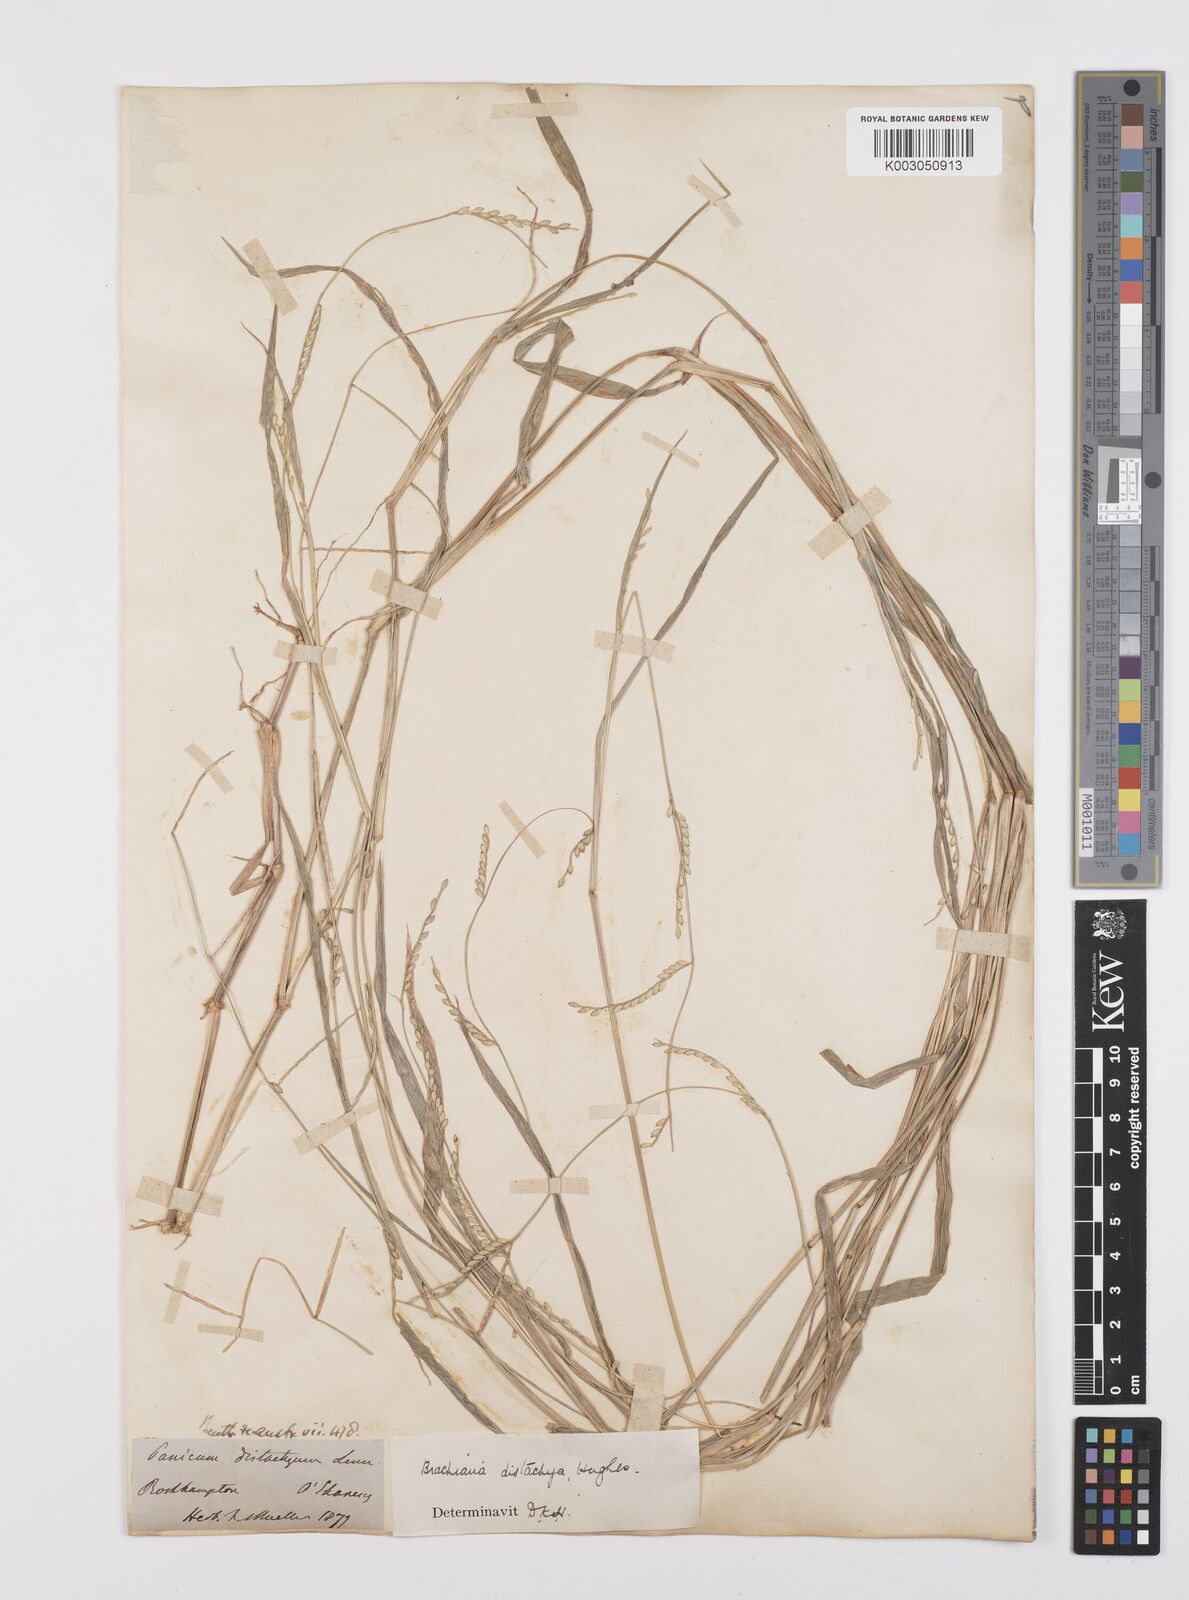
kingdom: Plantae
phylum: Tracheophyta
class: Liliopsida
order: Poales
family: Poaceae
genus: Urochloa
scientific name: Urochloa subquadripara
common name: Armgrass millet
